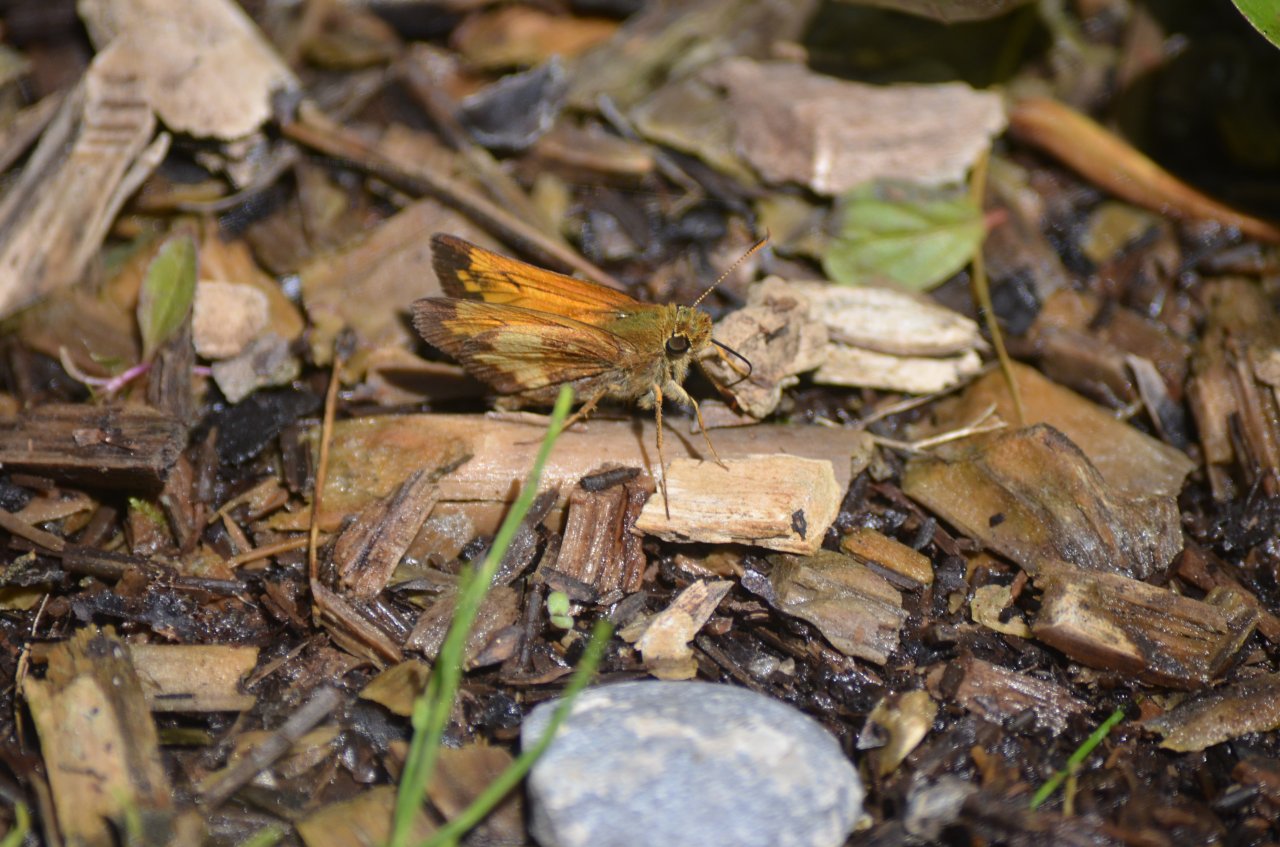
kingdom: Animalia
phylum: Arthropoda
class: Insecta
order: Lepidoptera
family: Hesperiidae
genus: Lon
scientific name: Lon hobomok
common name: Hobomok Skipper
